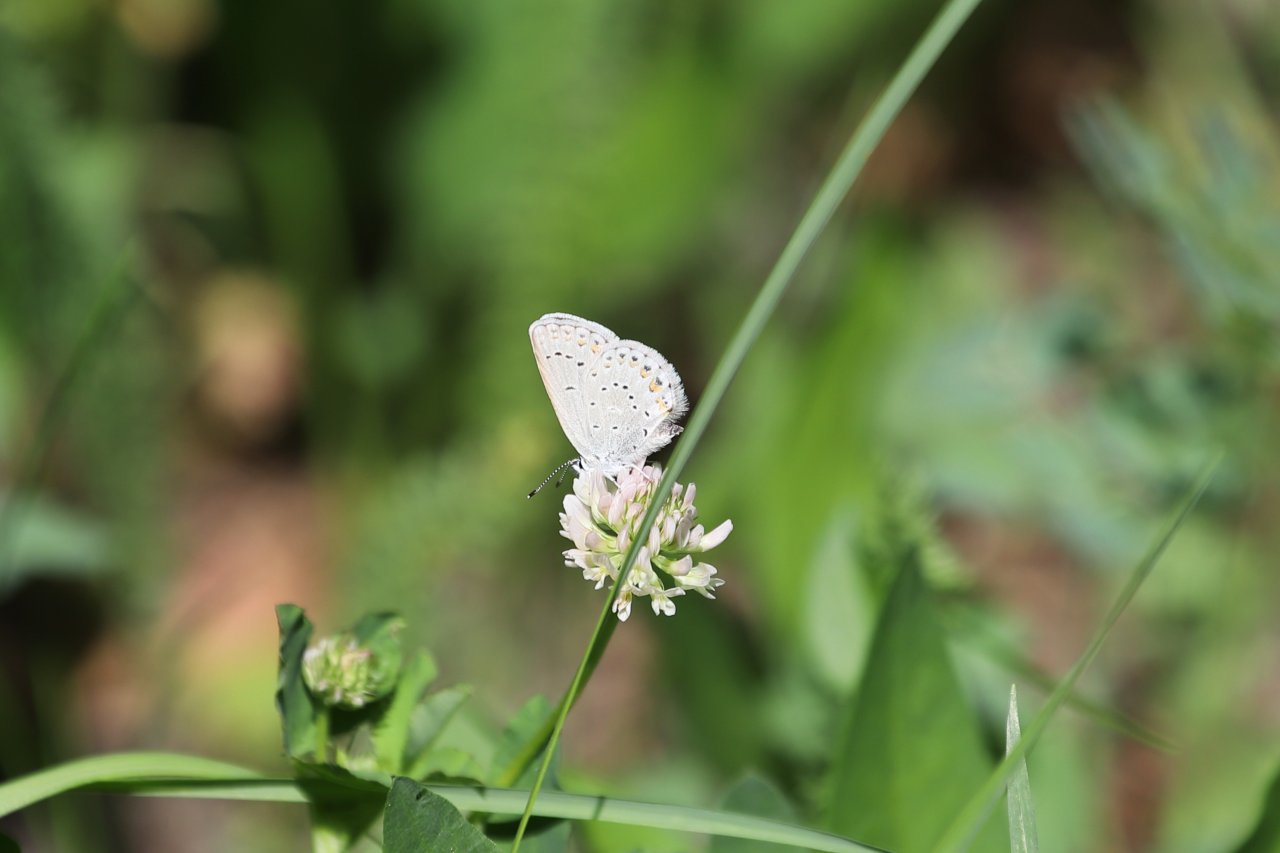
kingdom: Animalia
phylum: Arthropoda
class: Insecta
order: Lepidoptera
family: Lycaenidae
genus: Lycaeides
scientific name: Lycaeides anna
